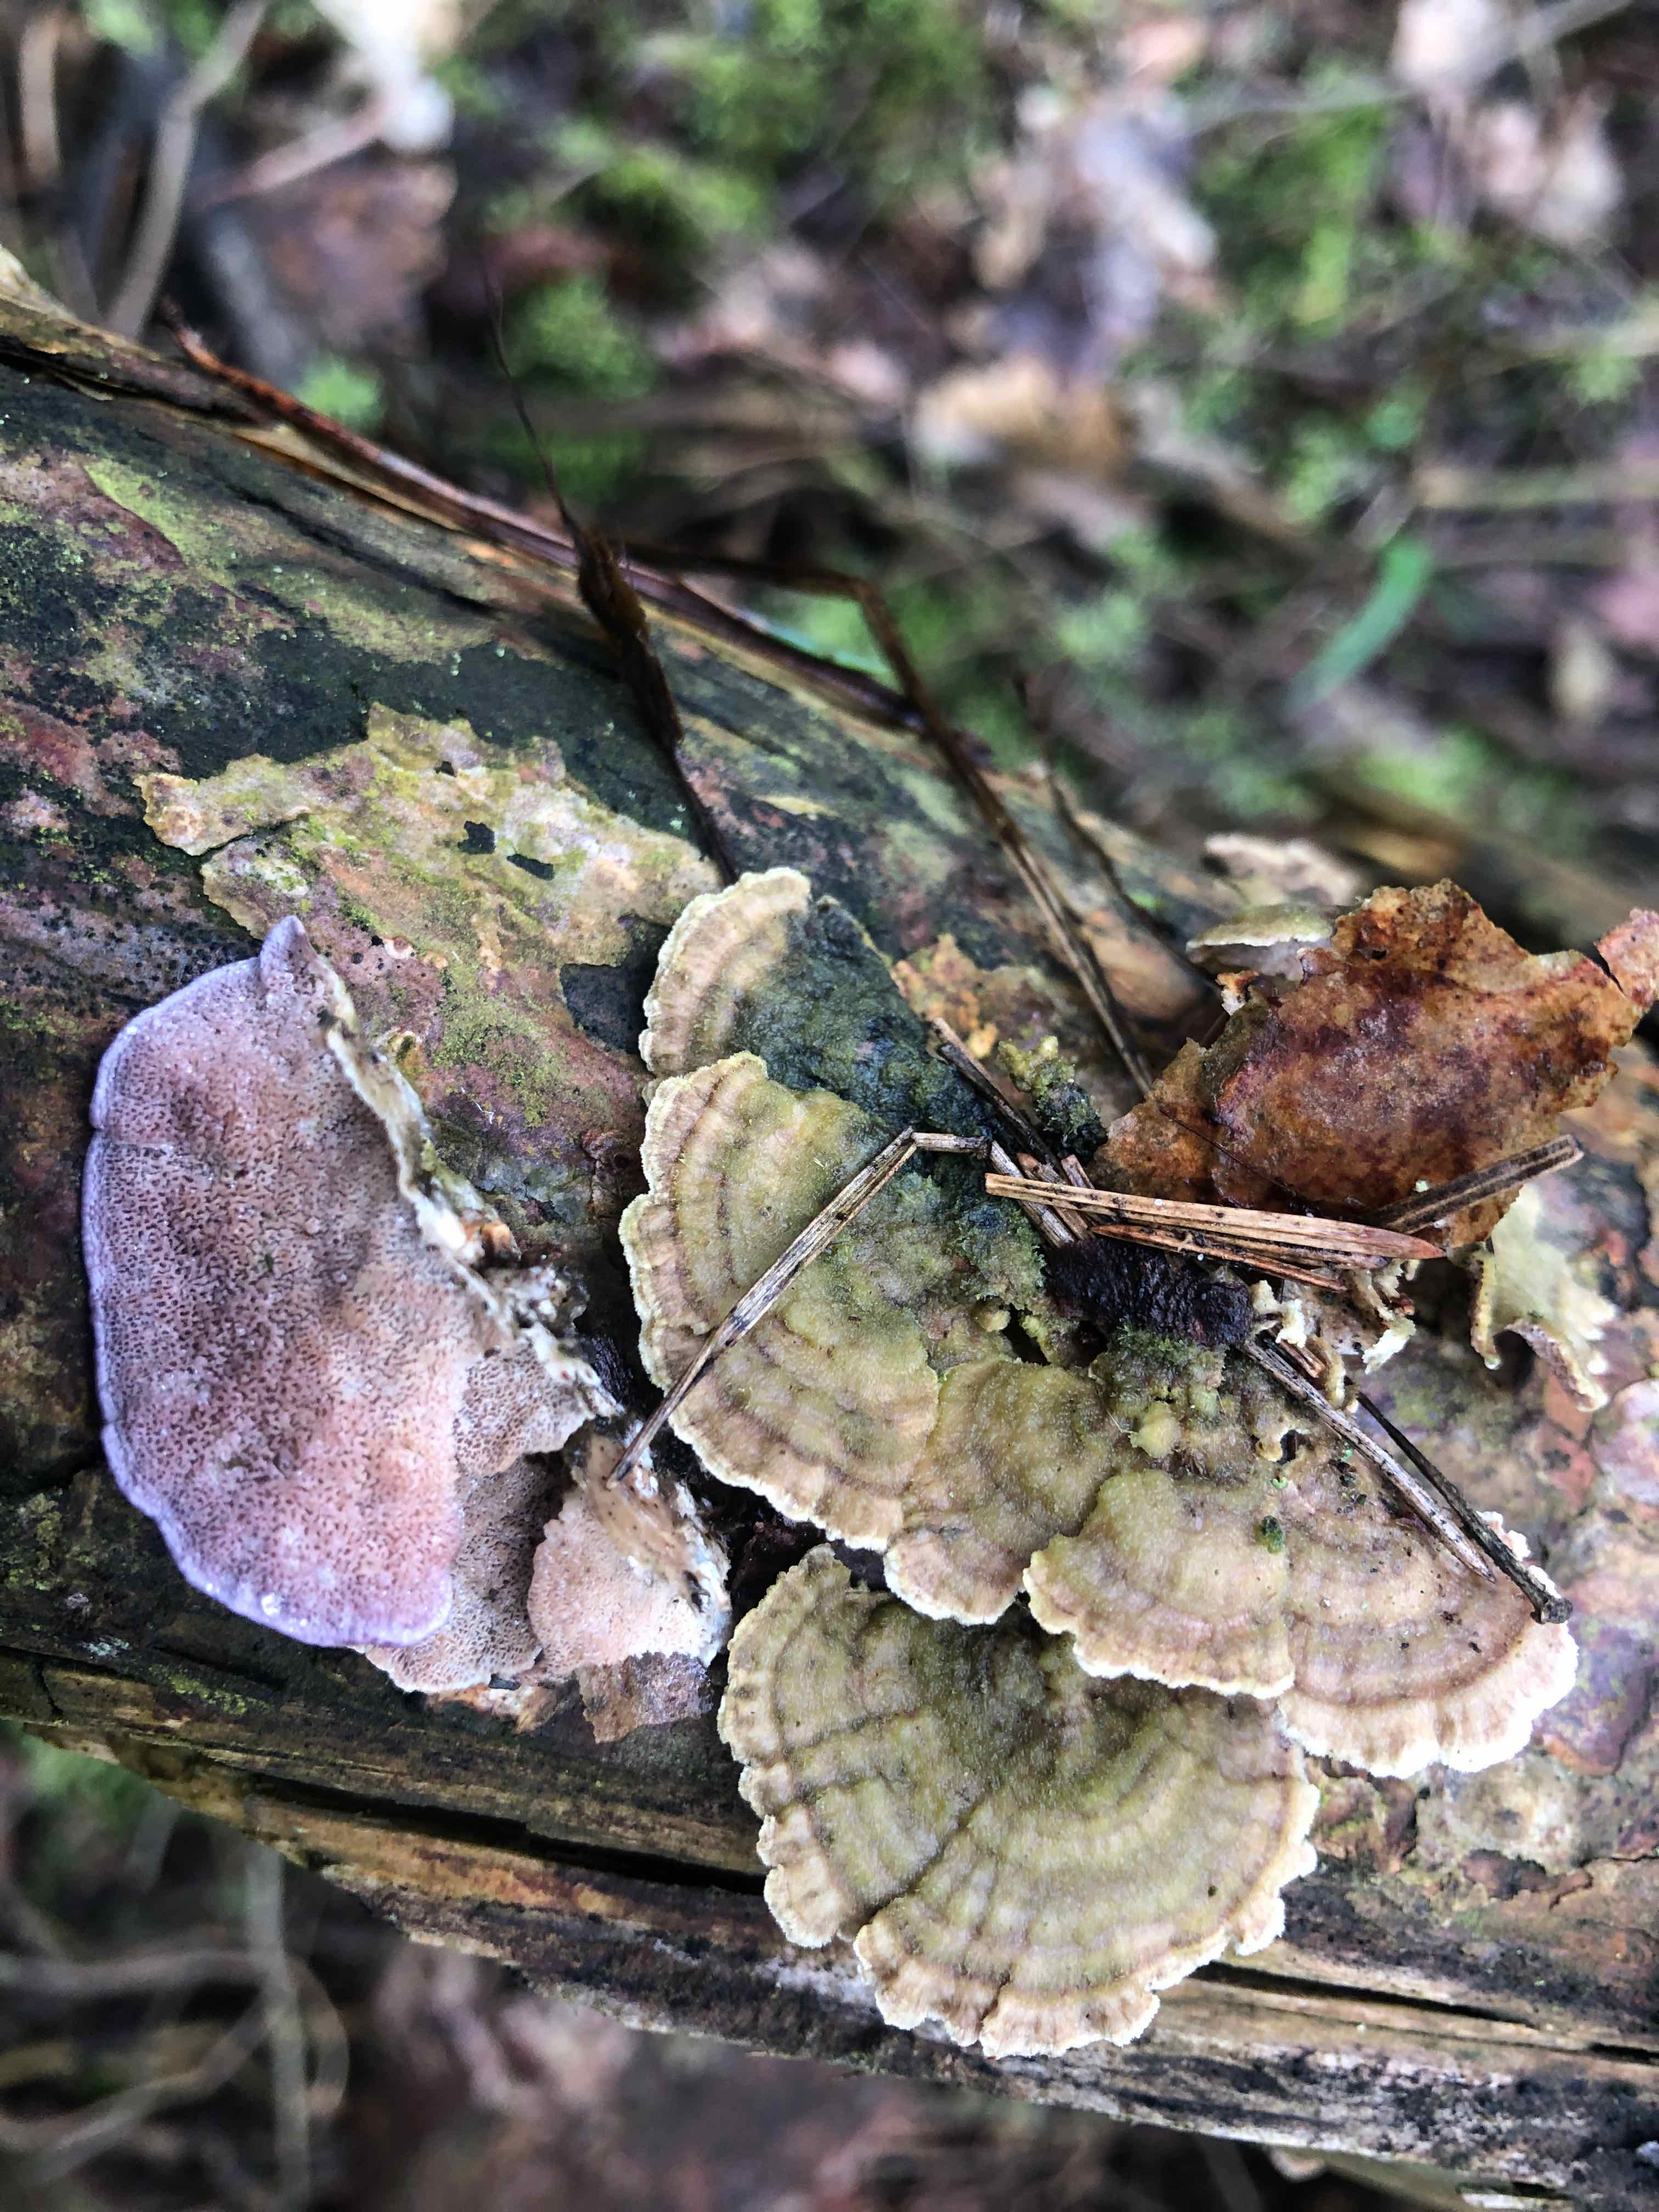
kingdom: Fungi
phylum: Basidiomycota
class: Agaricomycetes
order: Hymenochaetales
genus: Trichaptum
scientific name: Trichaptum abietinum
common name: almindelig violporesvamp
